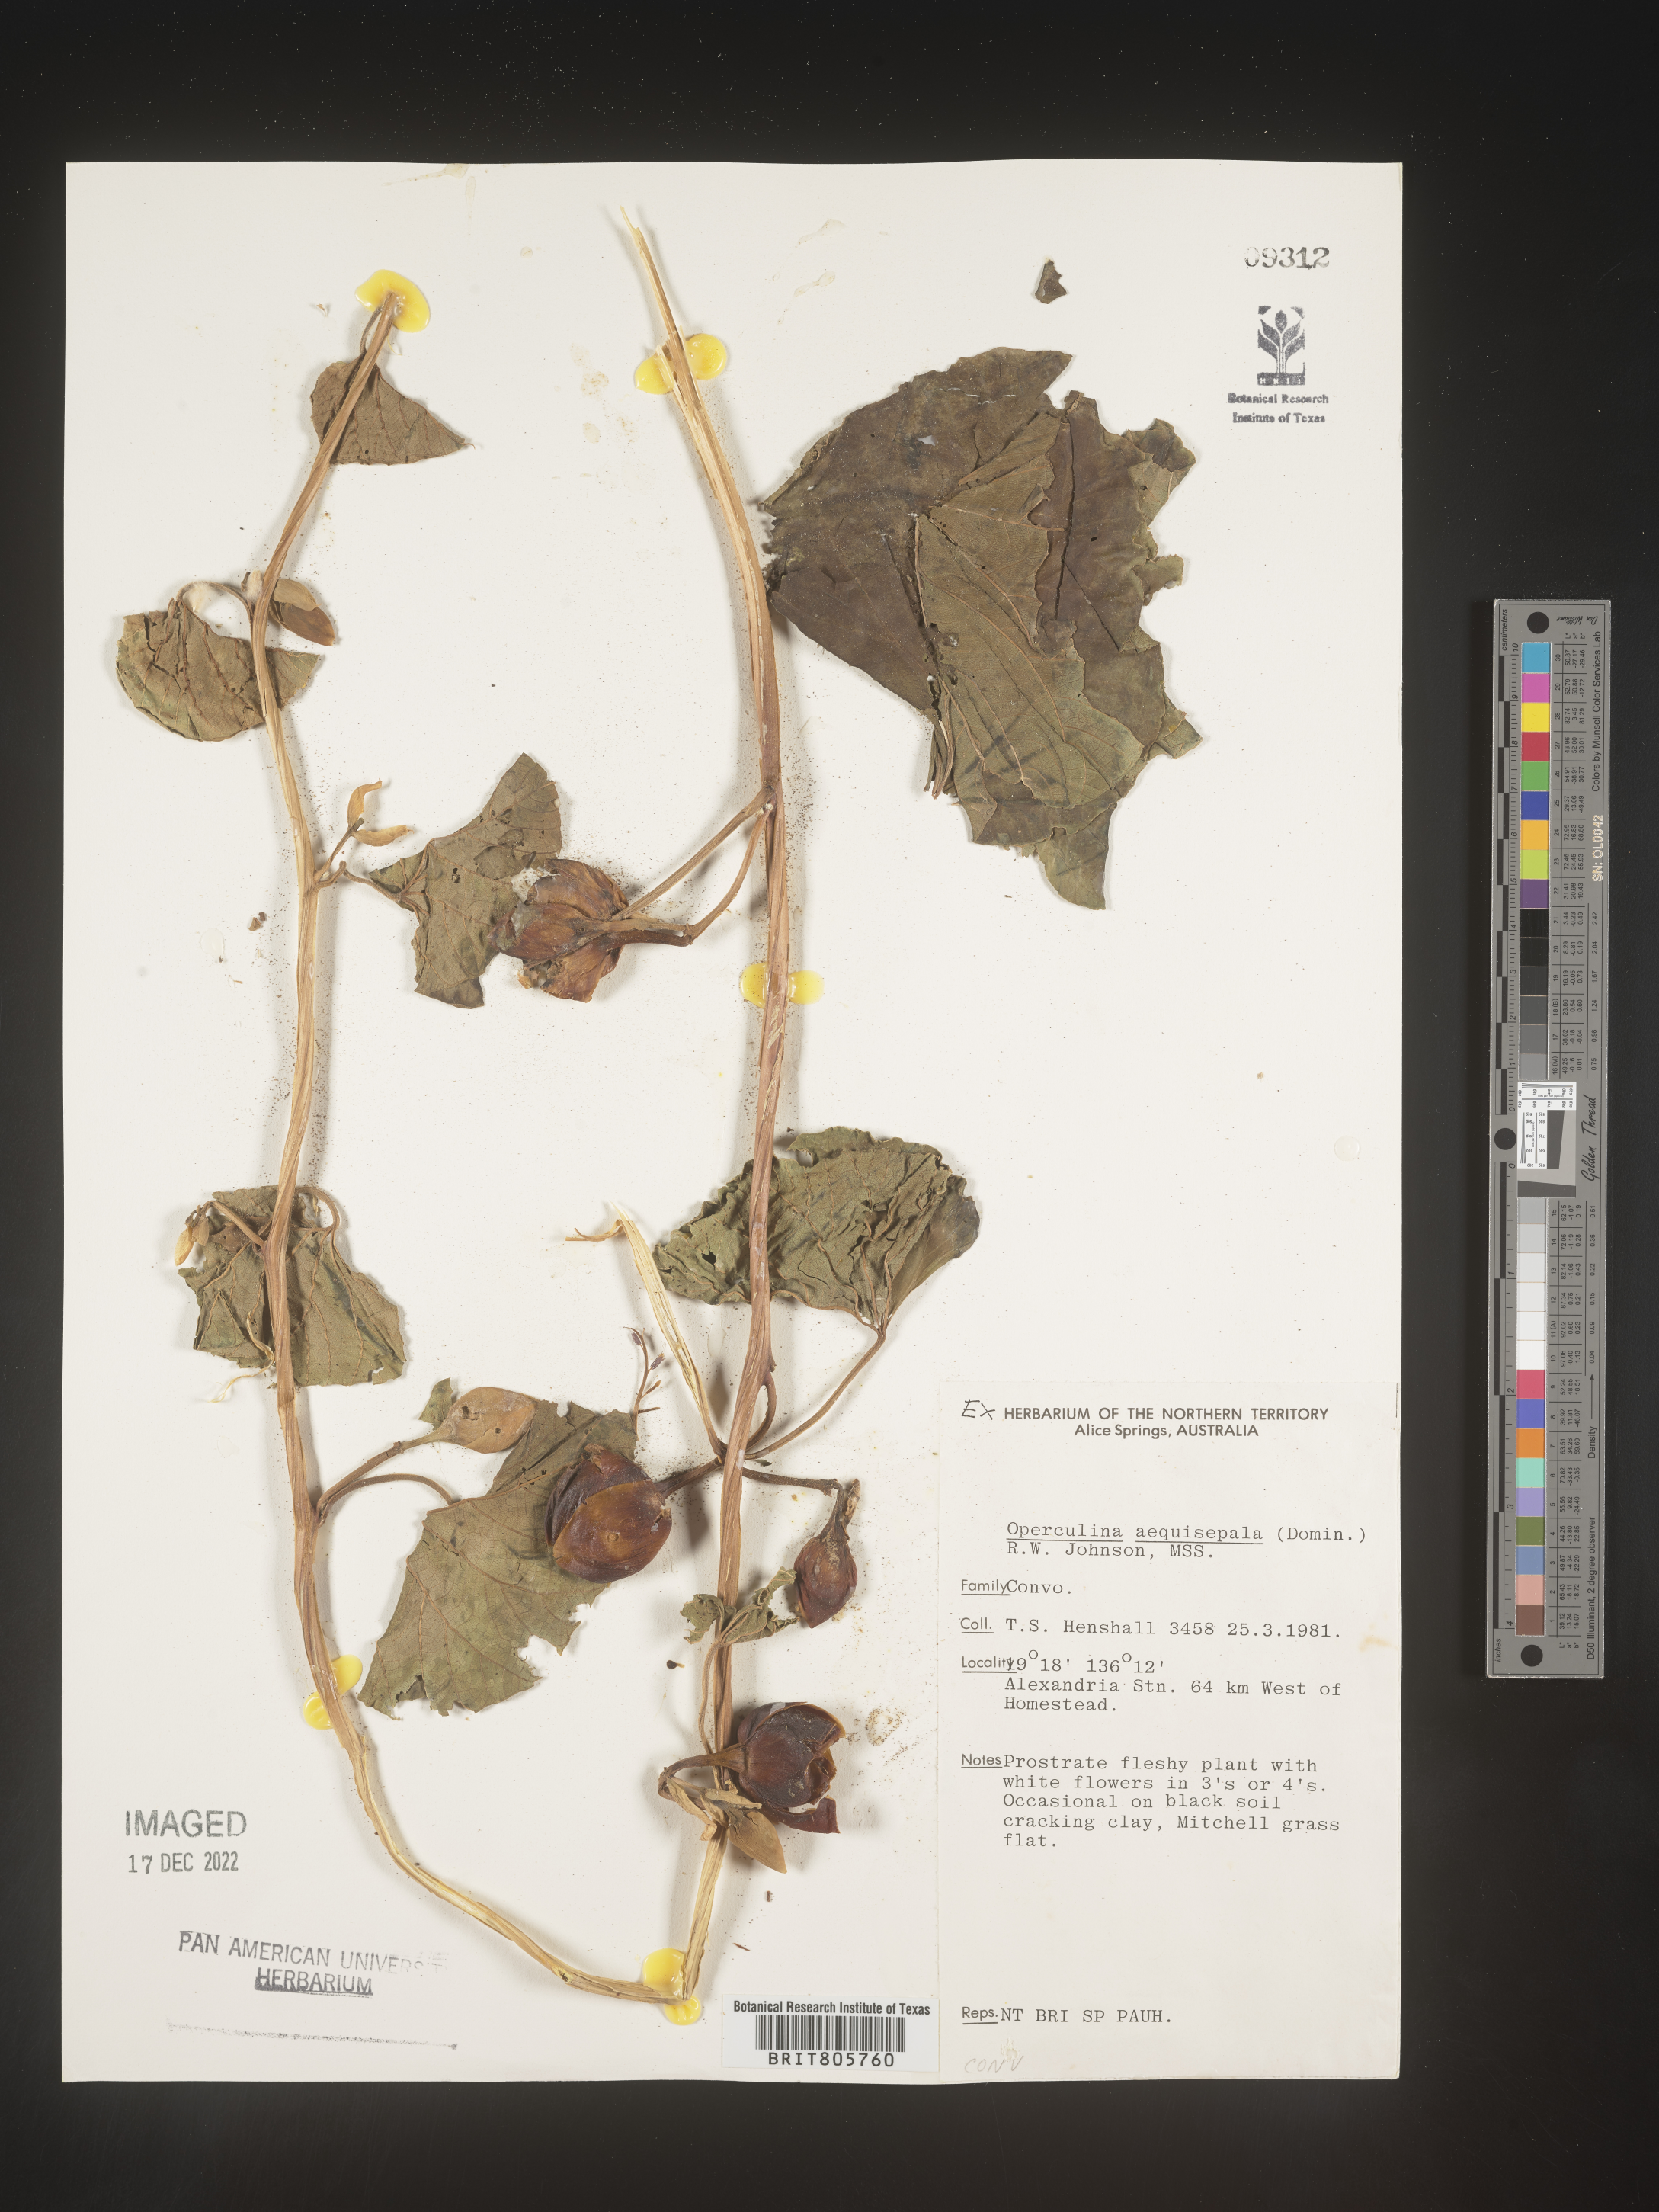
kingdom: Plantae
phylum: Tracheophyta
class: Magnoliopsida
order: Solanales
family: Convolvulaceae
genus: Operculina
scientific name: Operculina
